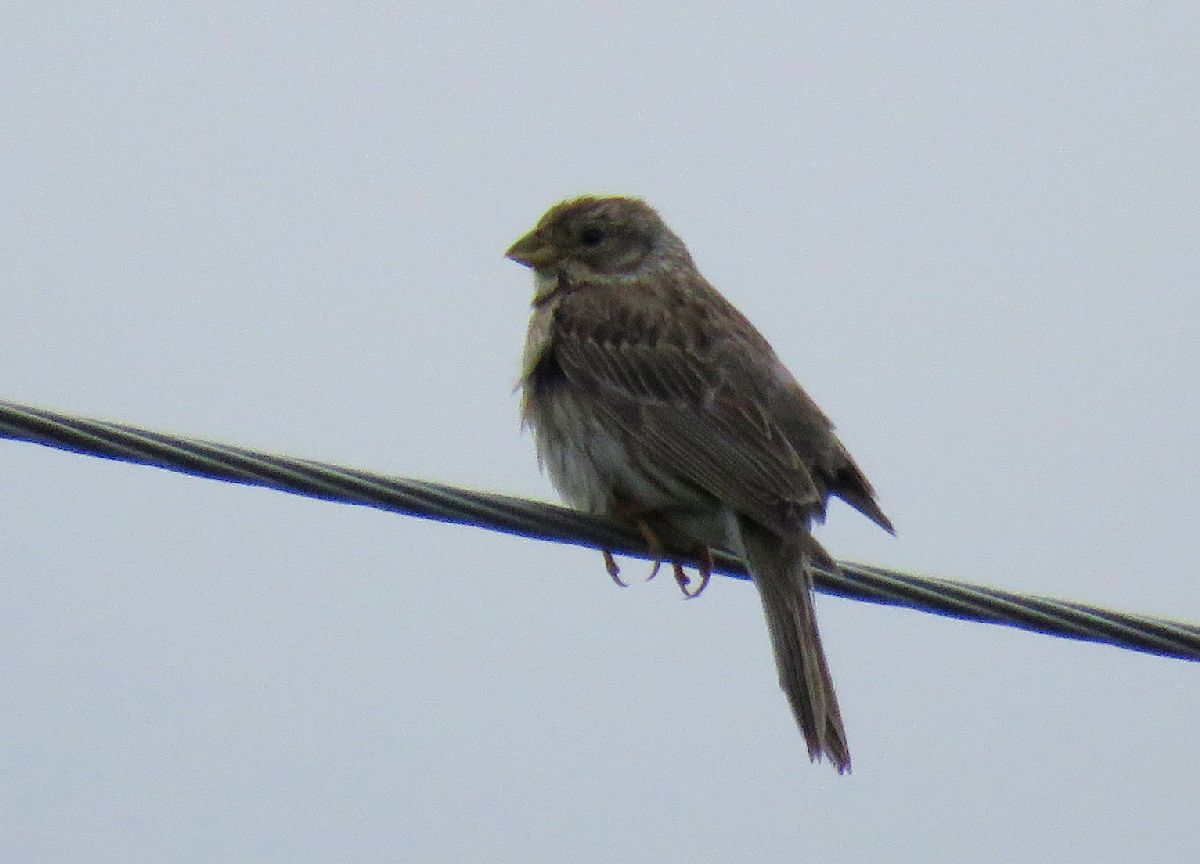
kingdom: Animalia
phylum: Chordata
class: Aves
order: Passeriformes
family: Emberizidae
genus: Emberiza
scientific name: Emberiza calandra
